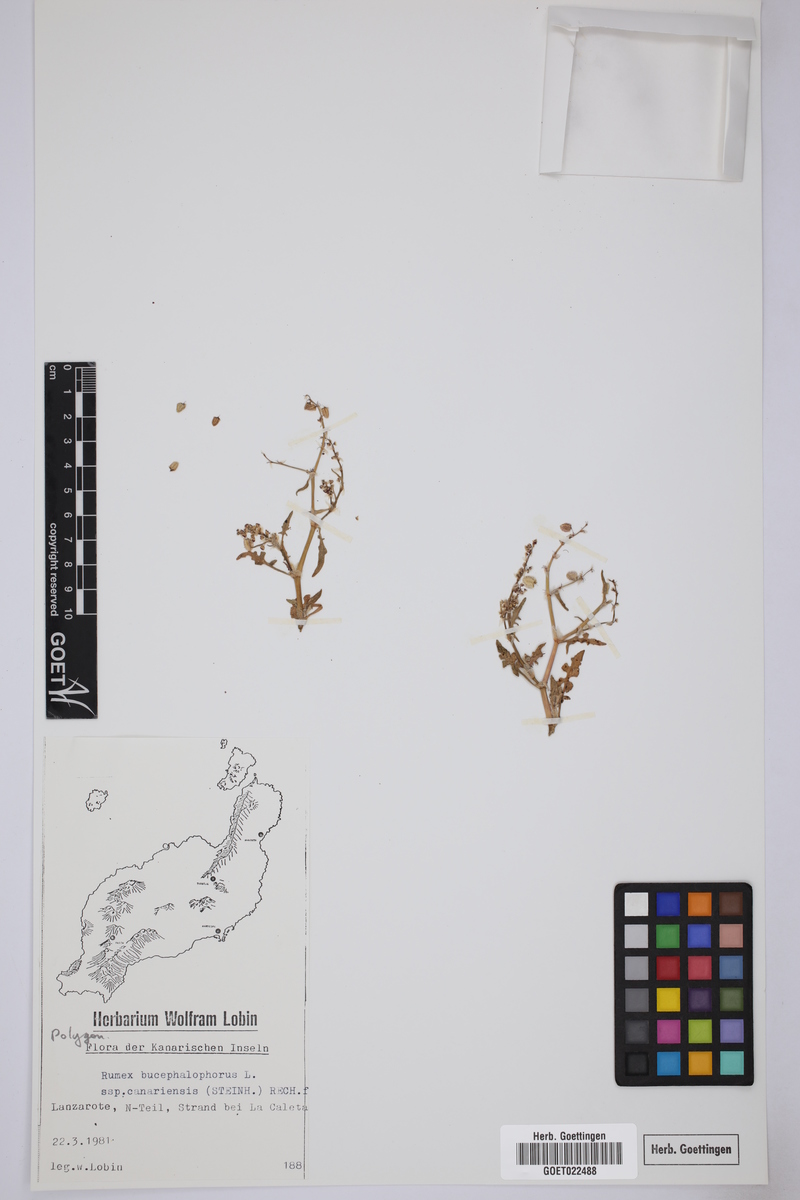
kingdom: Plantae
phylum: Tracheophyta
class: Magnoliopsida
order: Caryophyllales
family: Polygonaceae
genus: Rumex
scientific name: Rumex bucephalophorus
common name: Red dock
